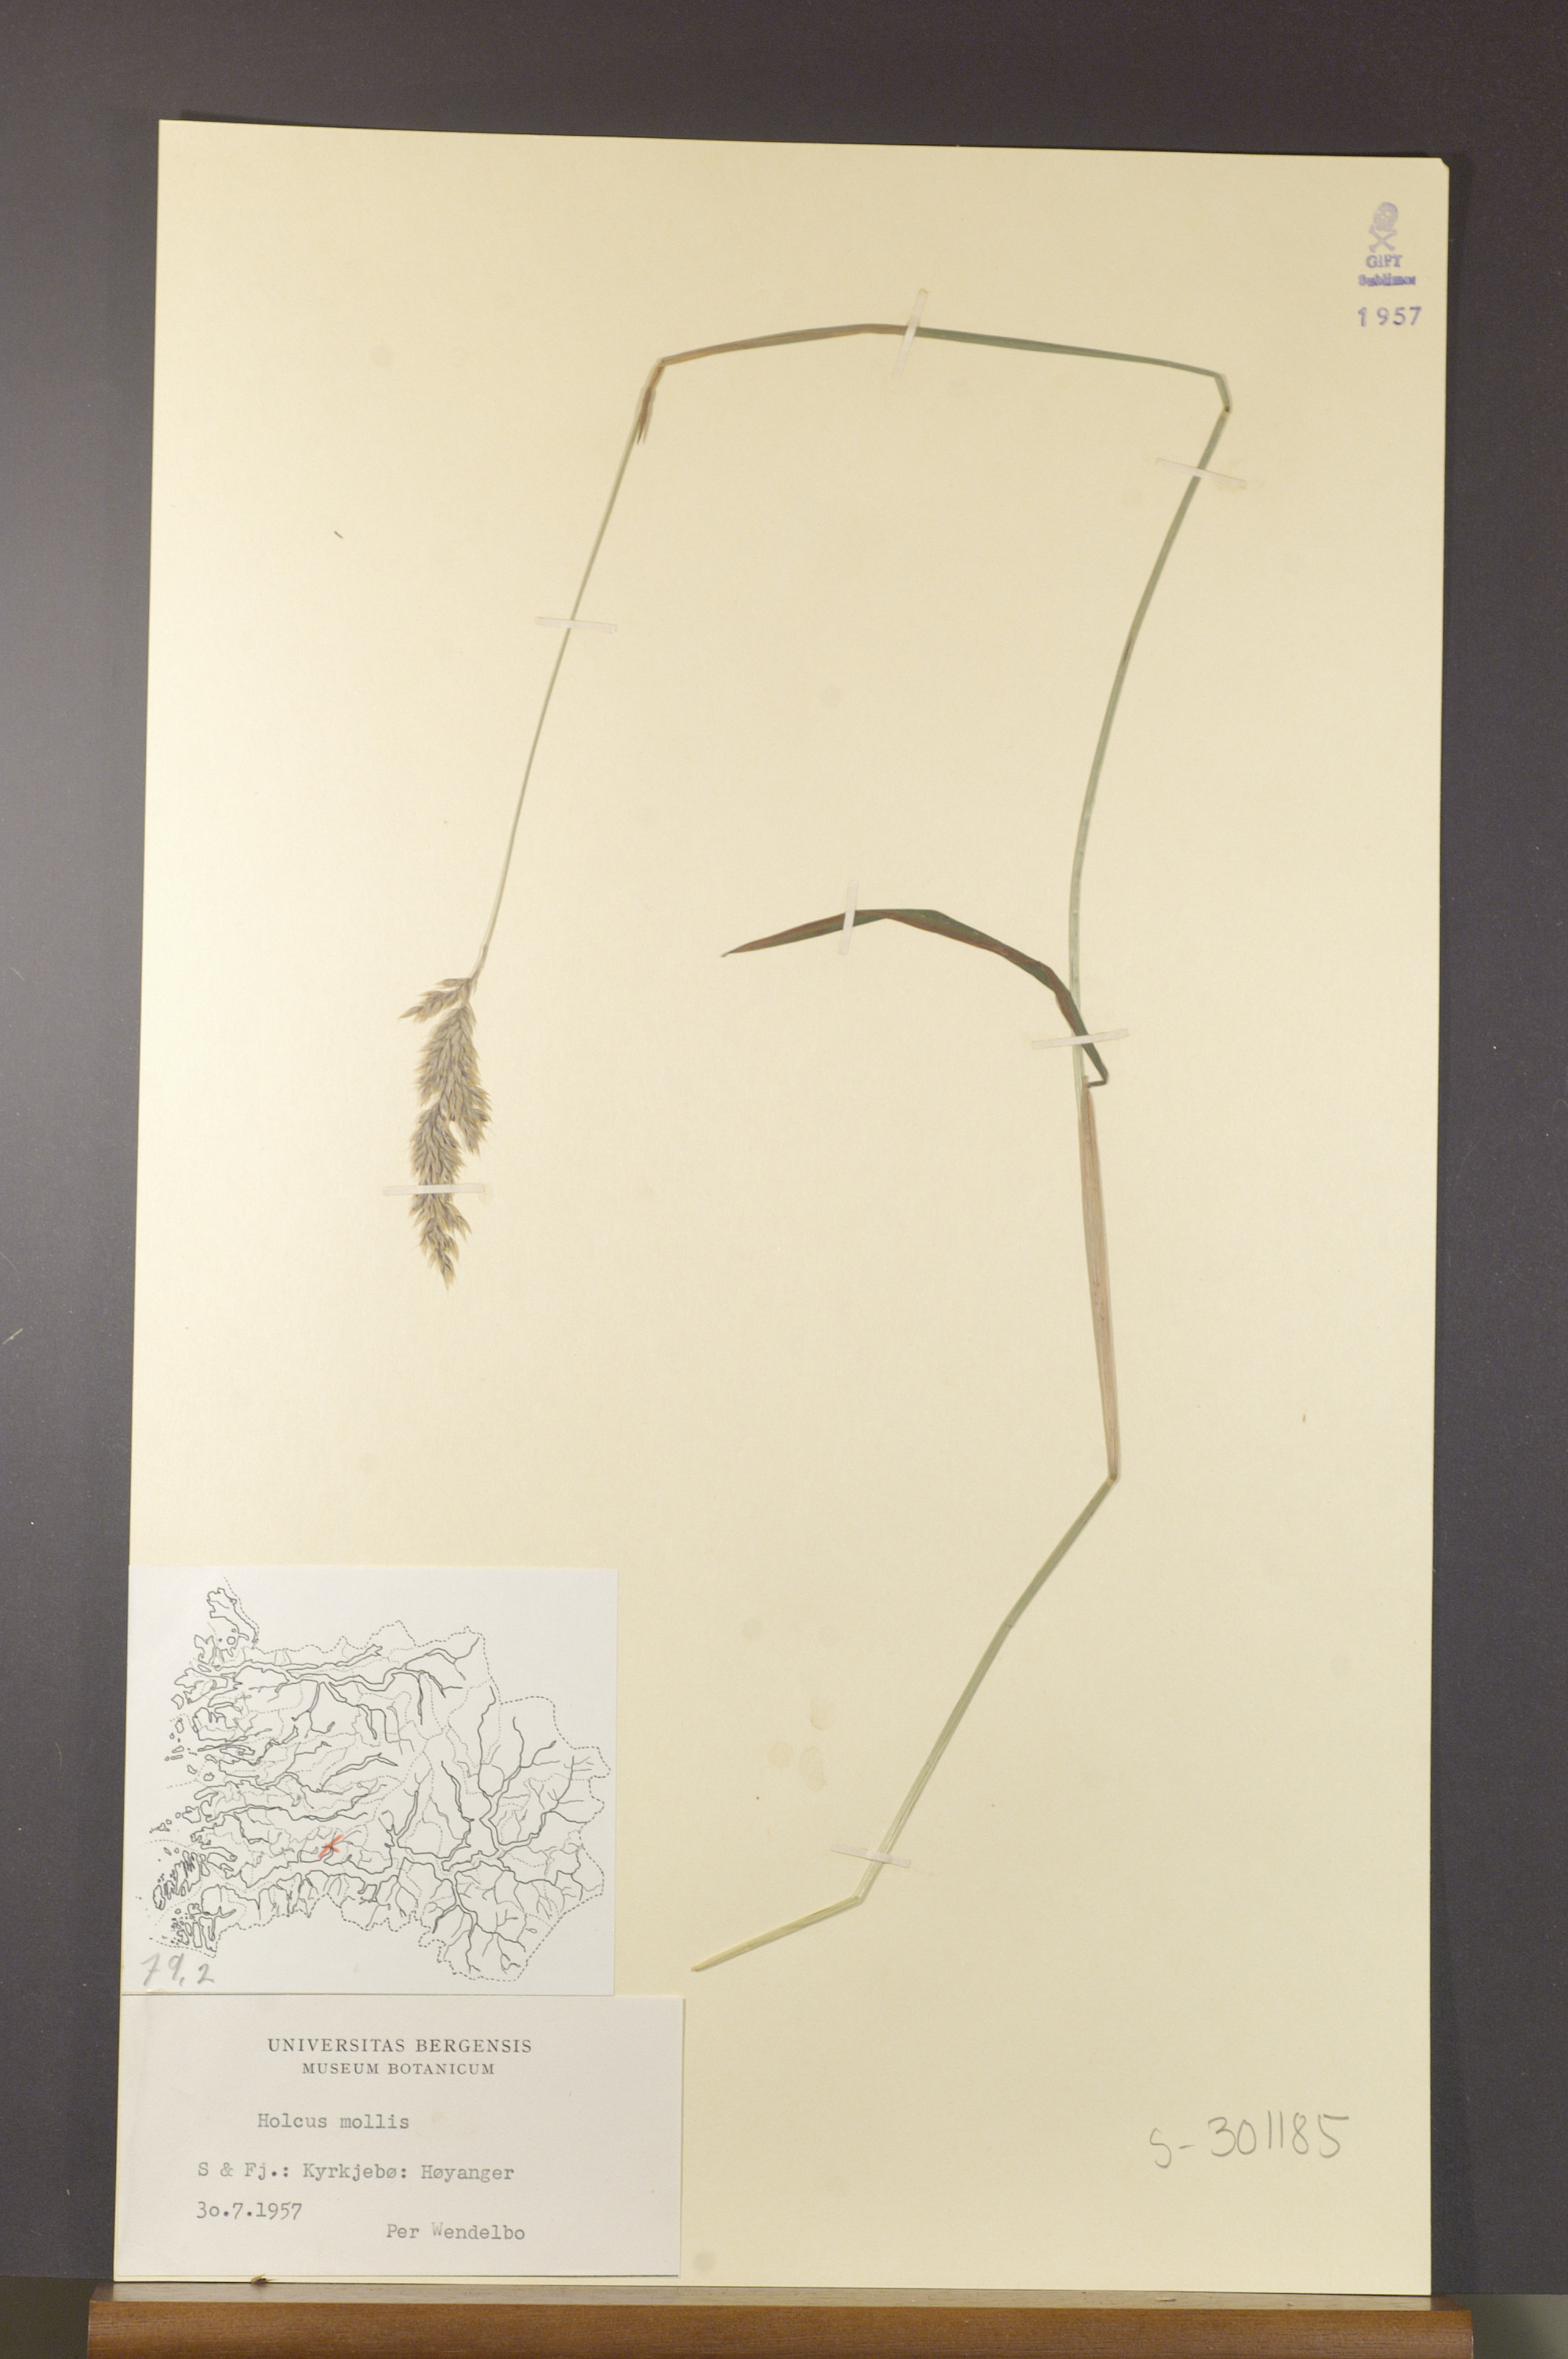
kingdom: Plantae
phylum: Tracheophyta
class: Liliopsida
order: Poales
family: Poaceae
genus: Holcus
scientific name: Holcus mollis
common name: Creeping velvetgrass
